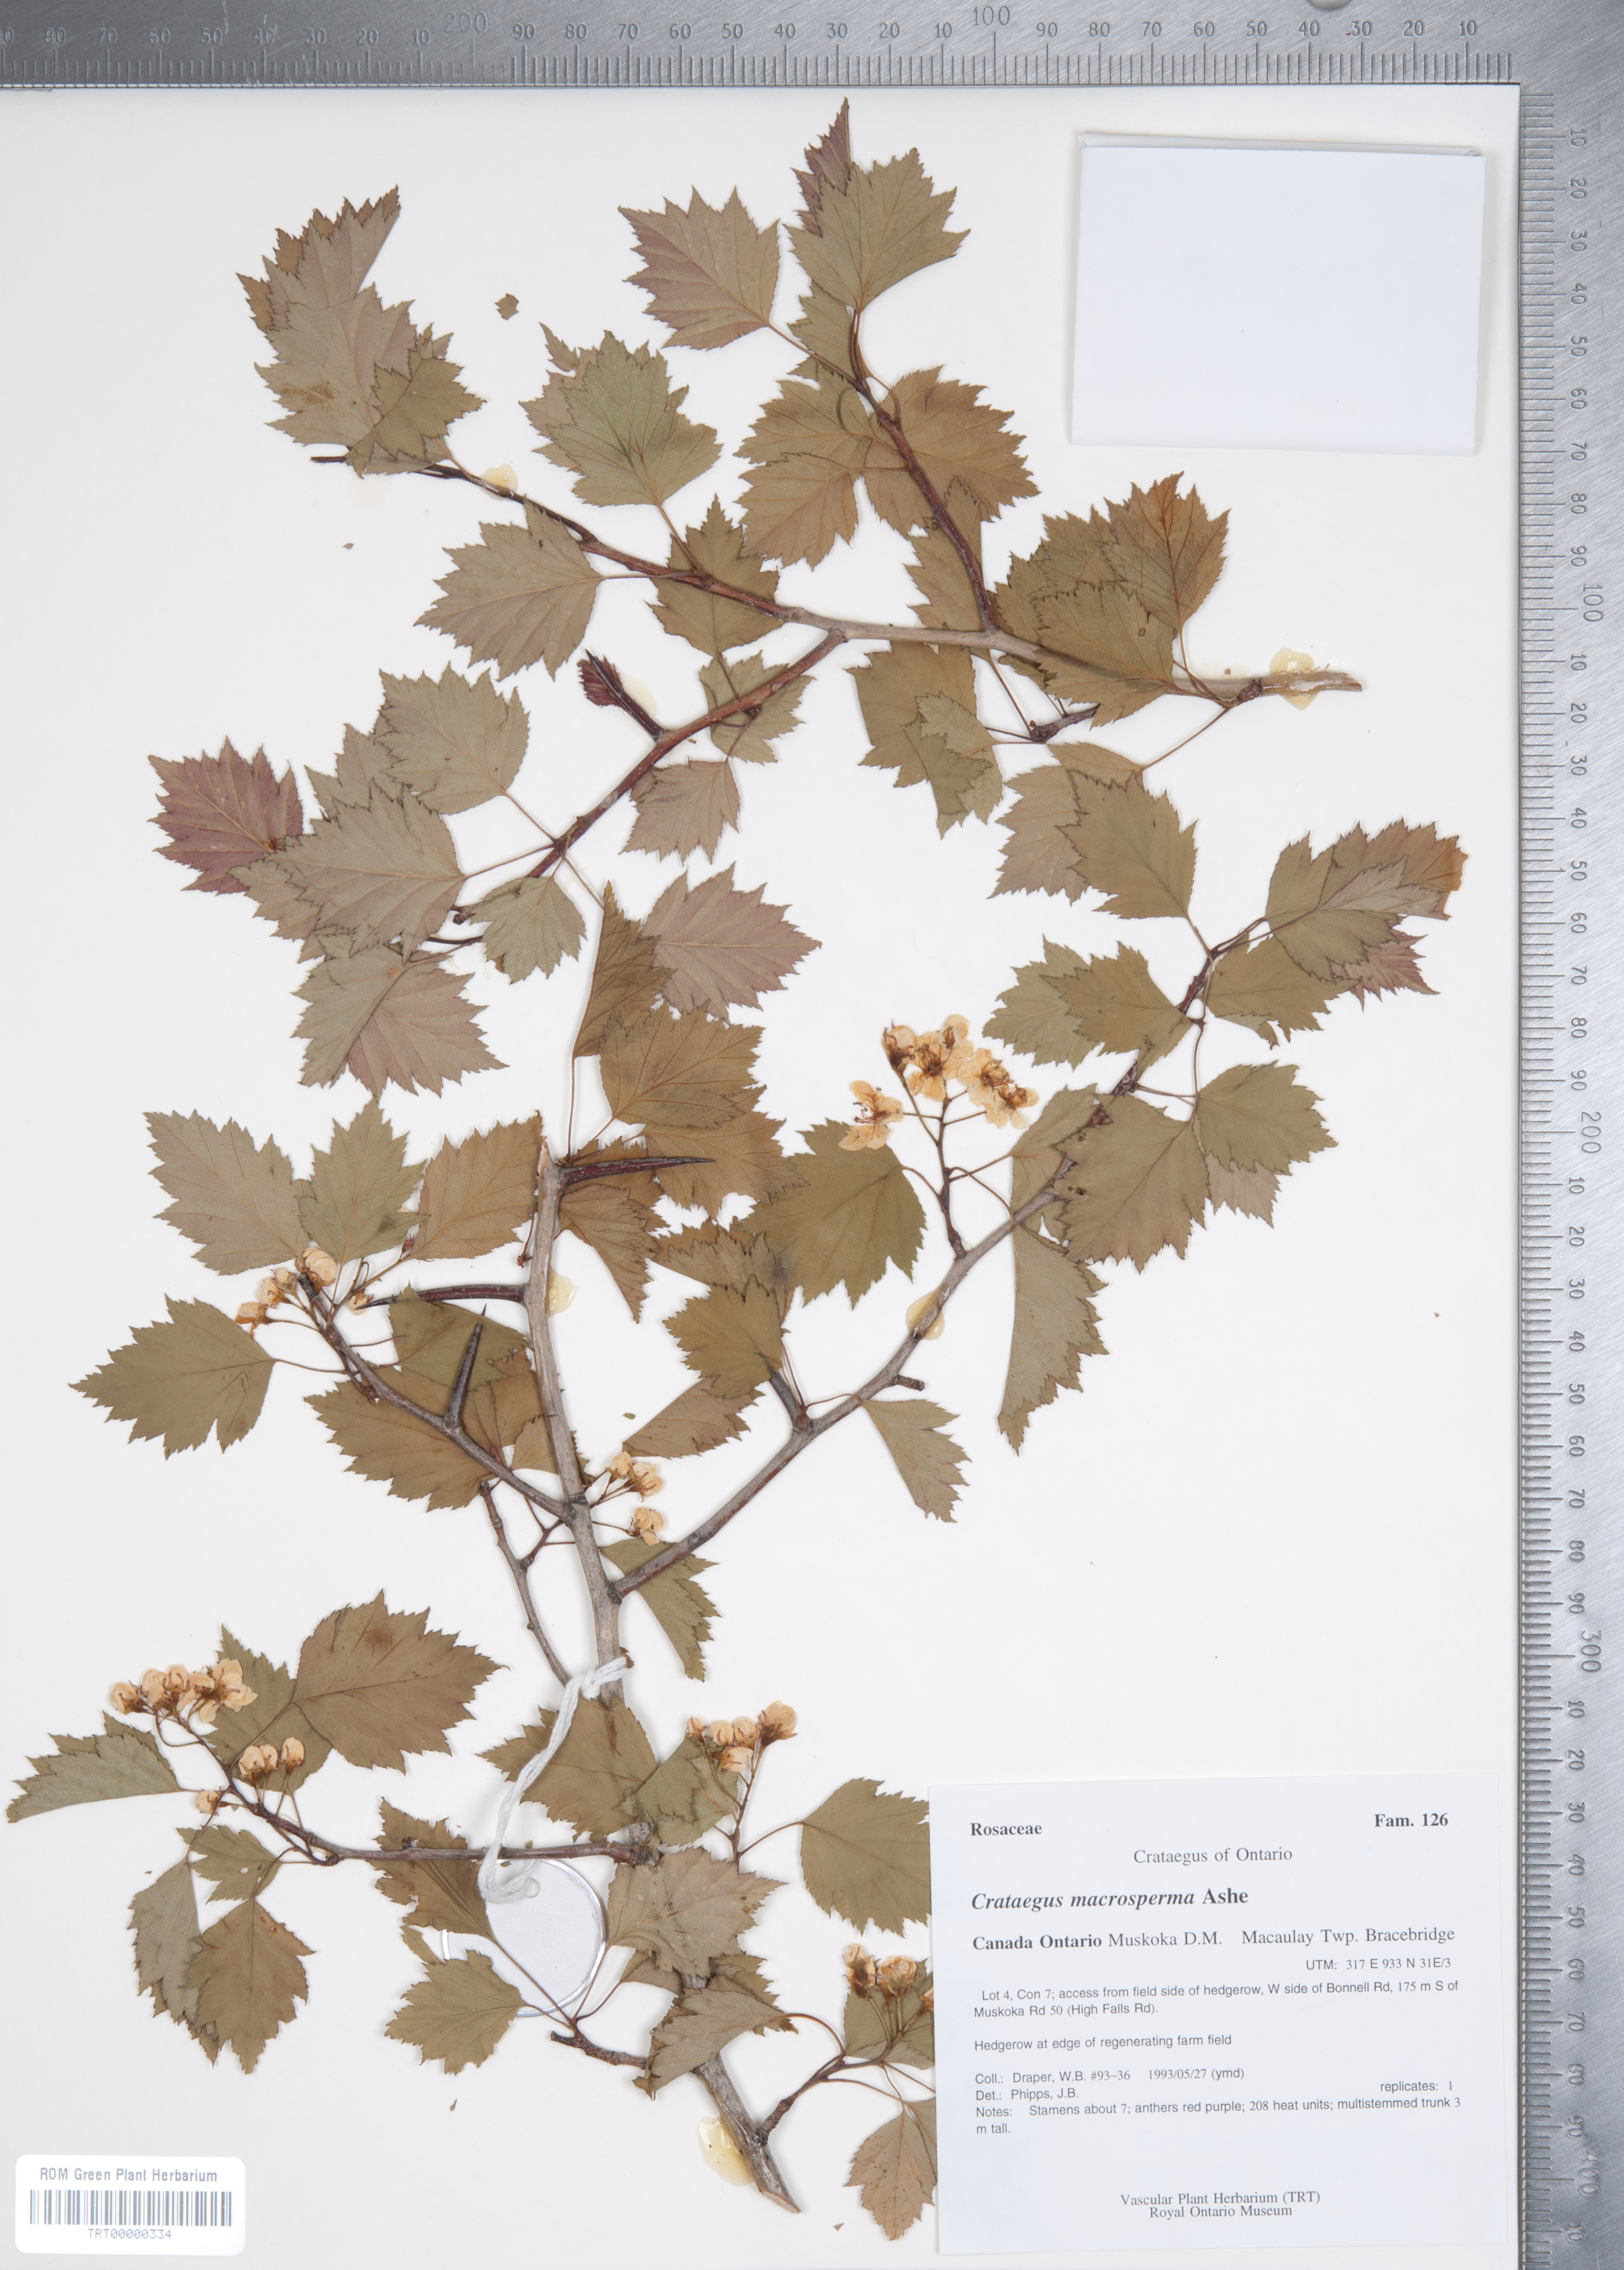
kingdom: Plantae
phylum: Tracheophyta
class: Magnoliopsida
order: Rosales
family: Rosaceae
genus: Crataegus
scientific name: Crataegus macrosperma
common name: Variable hawthorn
